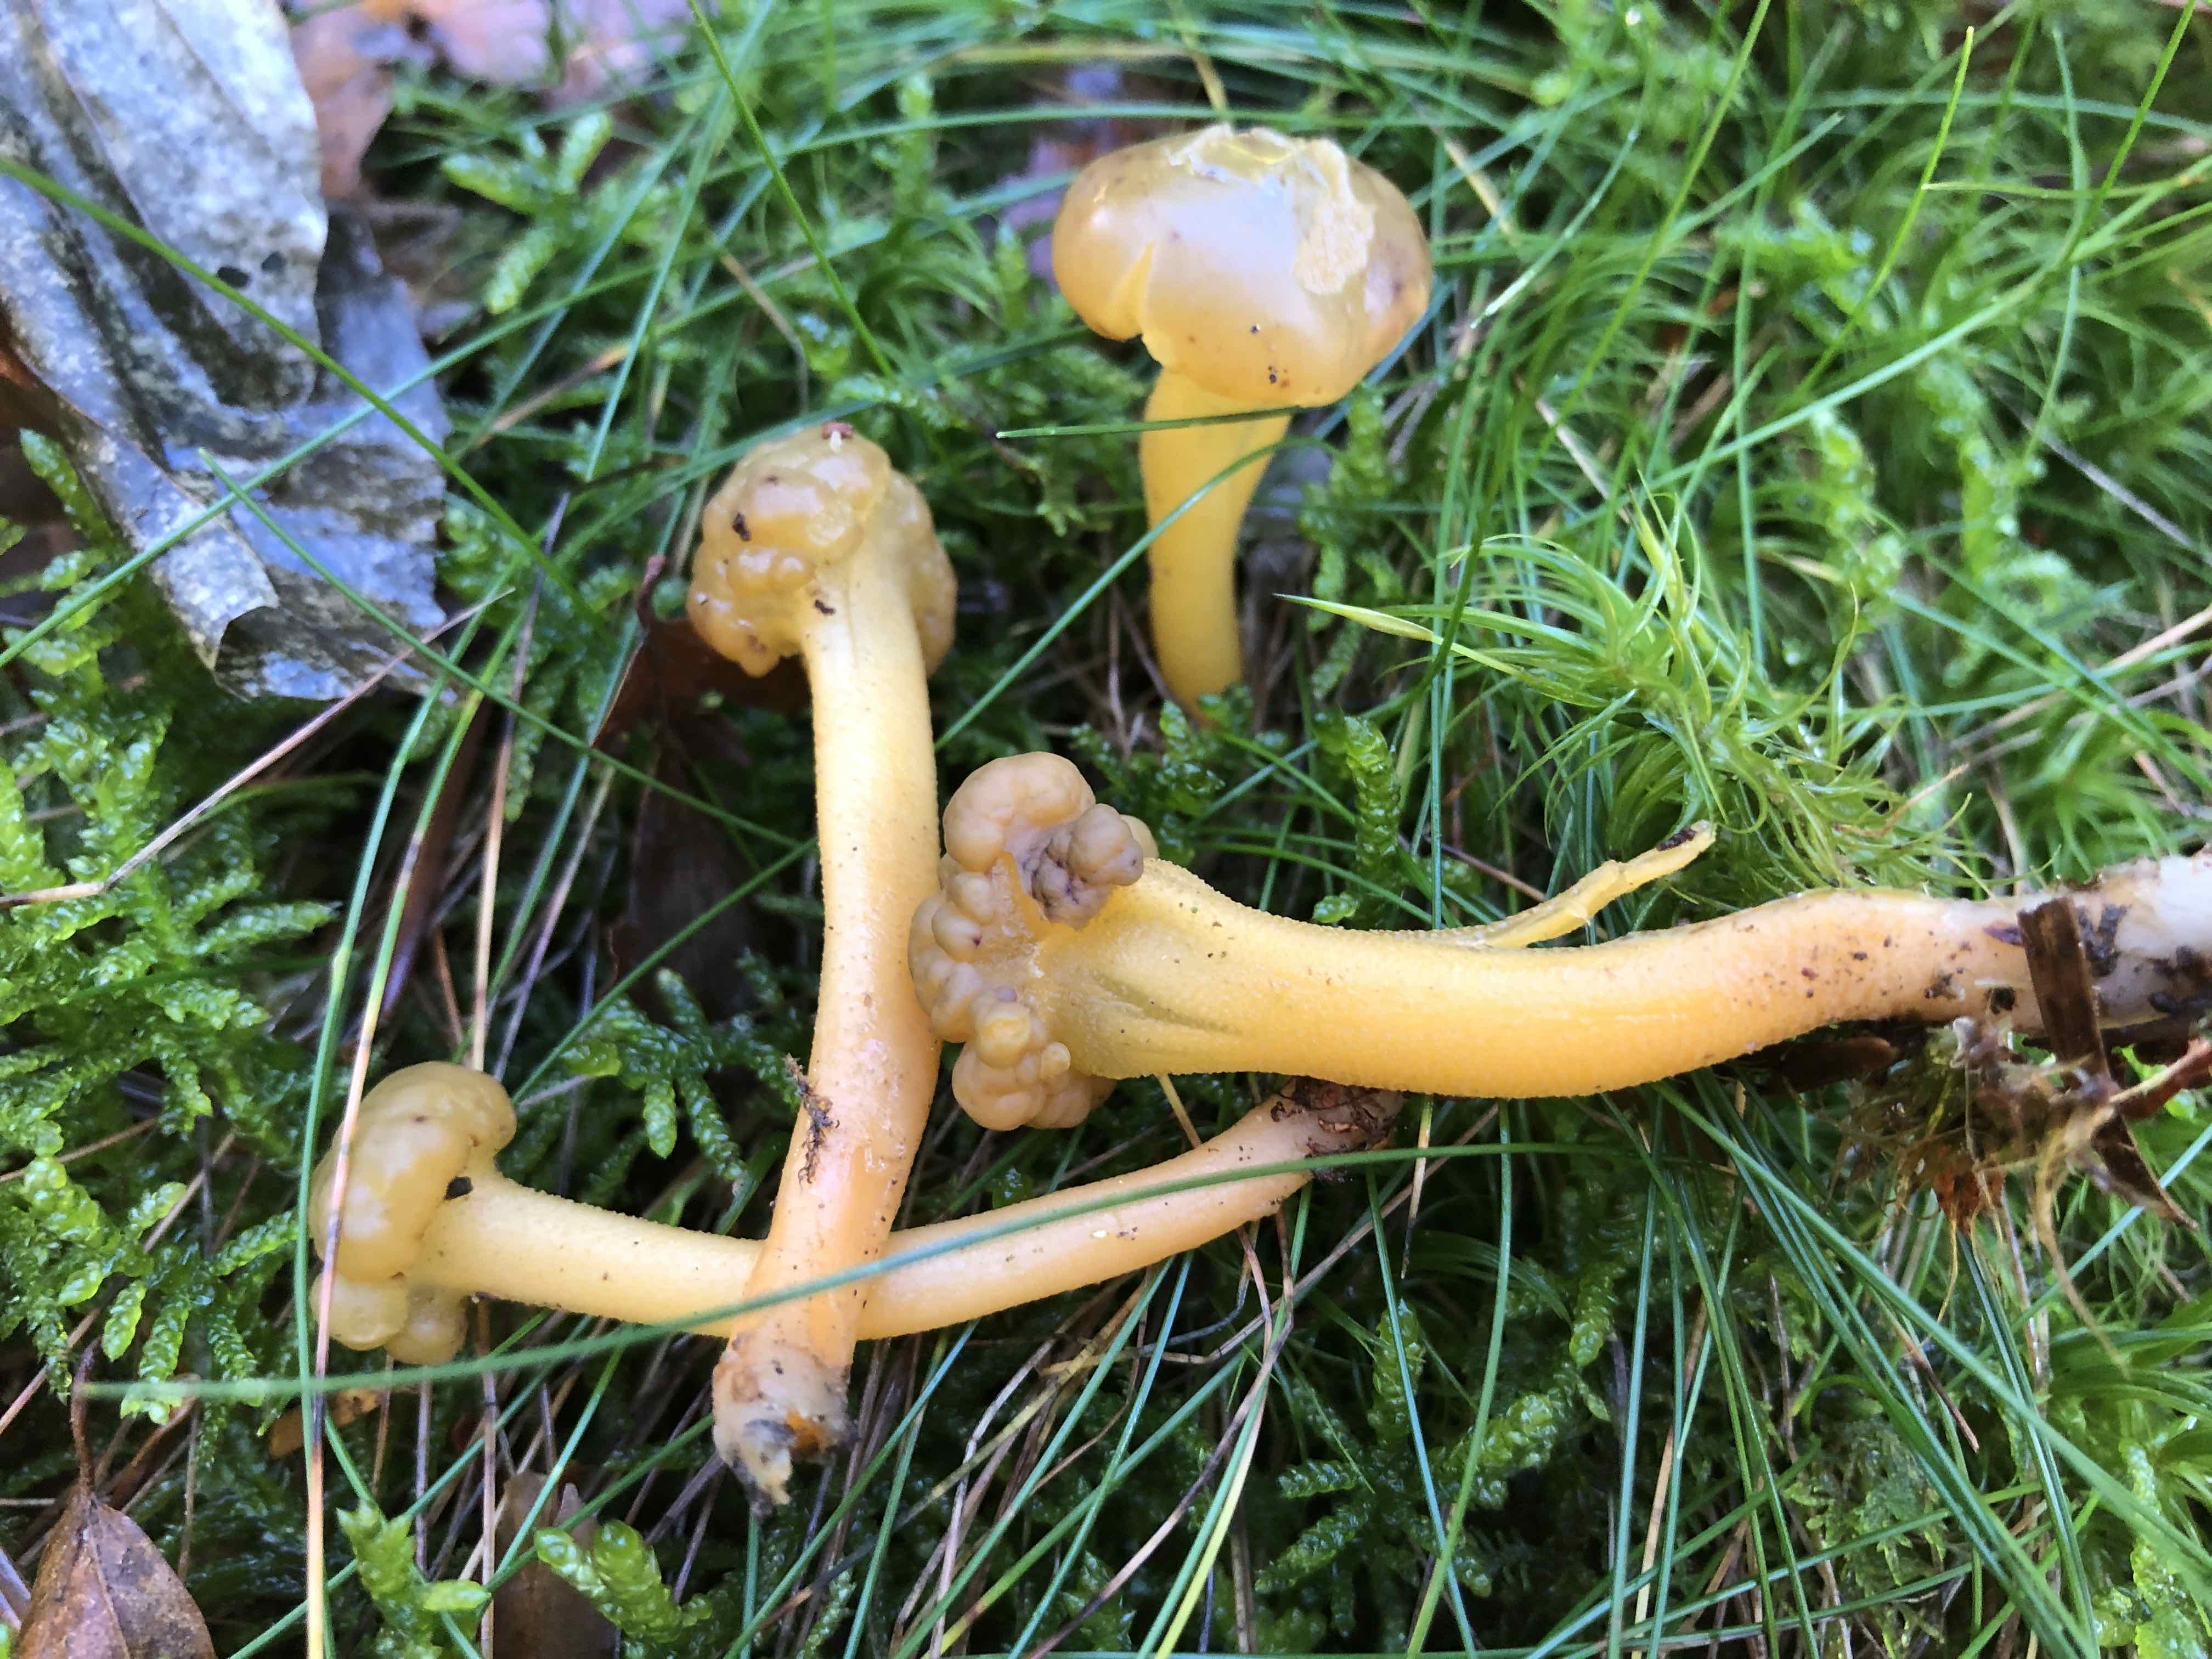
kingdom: Fungi
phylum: Ascomycota
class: Leotiomycetes
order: Leotiales
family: Leotiaceae
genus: Leotia
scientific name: Leotia lubrica
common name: ravsvamp
